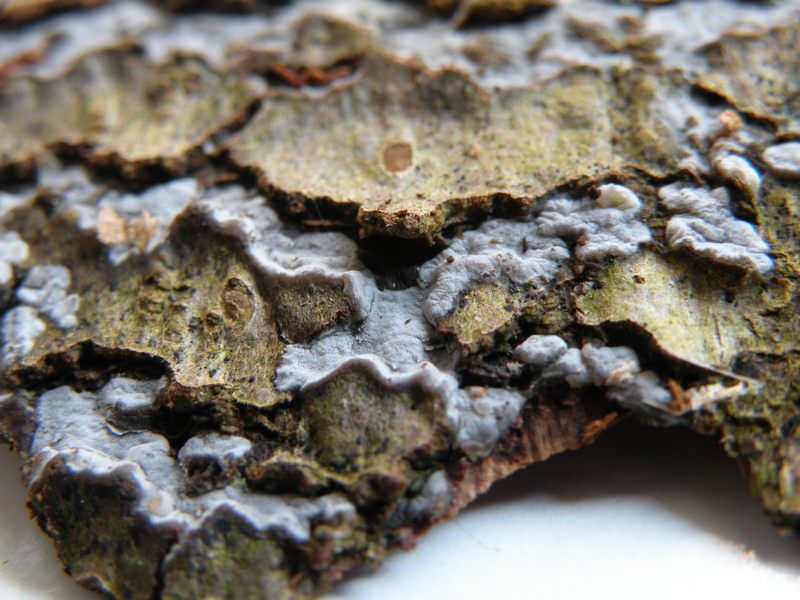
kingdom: Fungi
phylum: Basidiomycota
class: Agaricomycetes
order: Sebacinales
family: Sebacinaceae
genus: Sebacina
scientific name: Sebacina grisea
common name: blågrå bævrehinde
